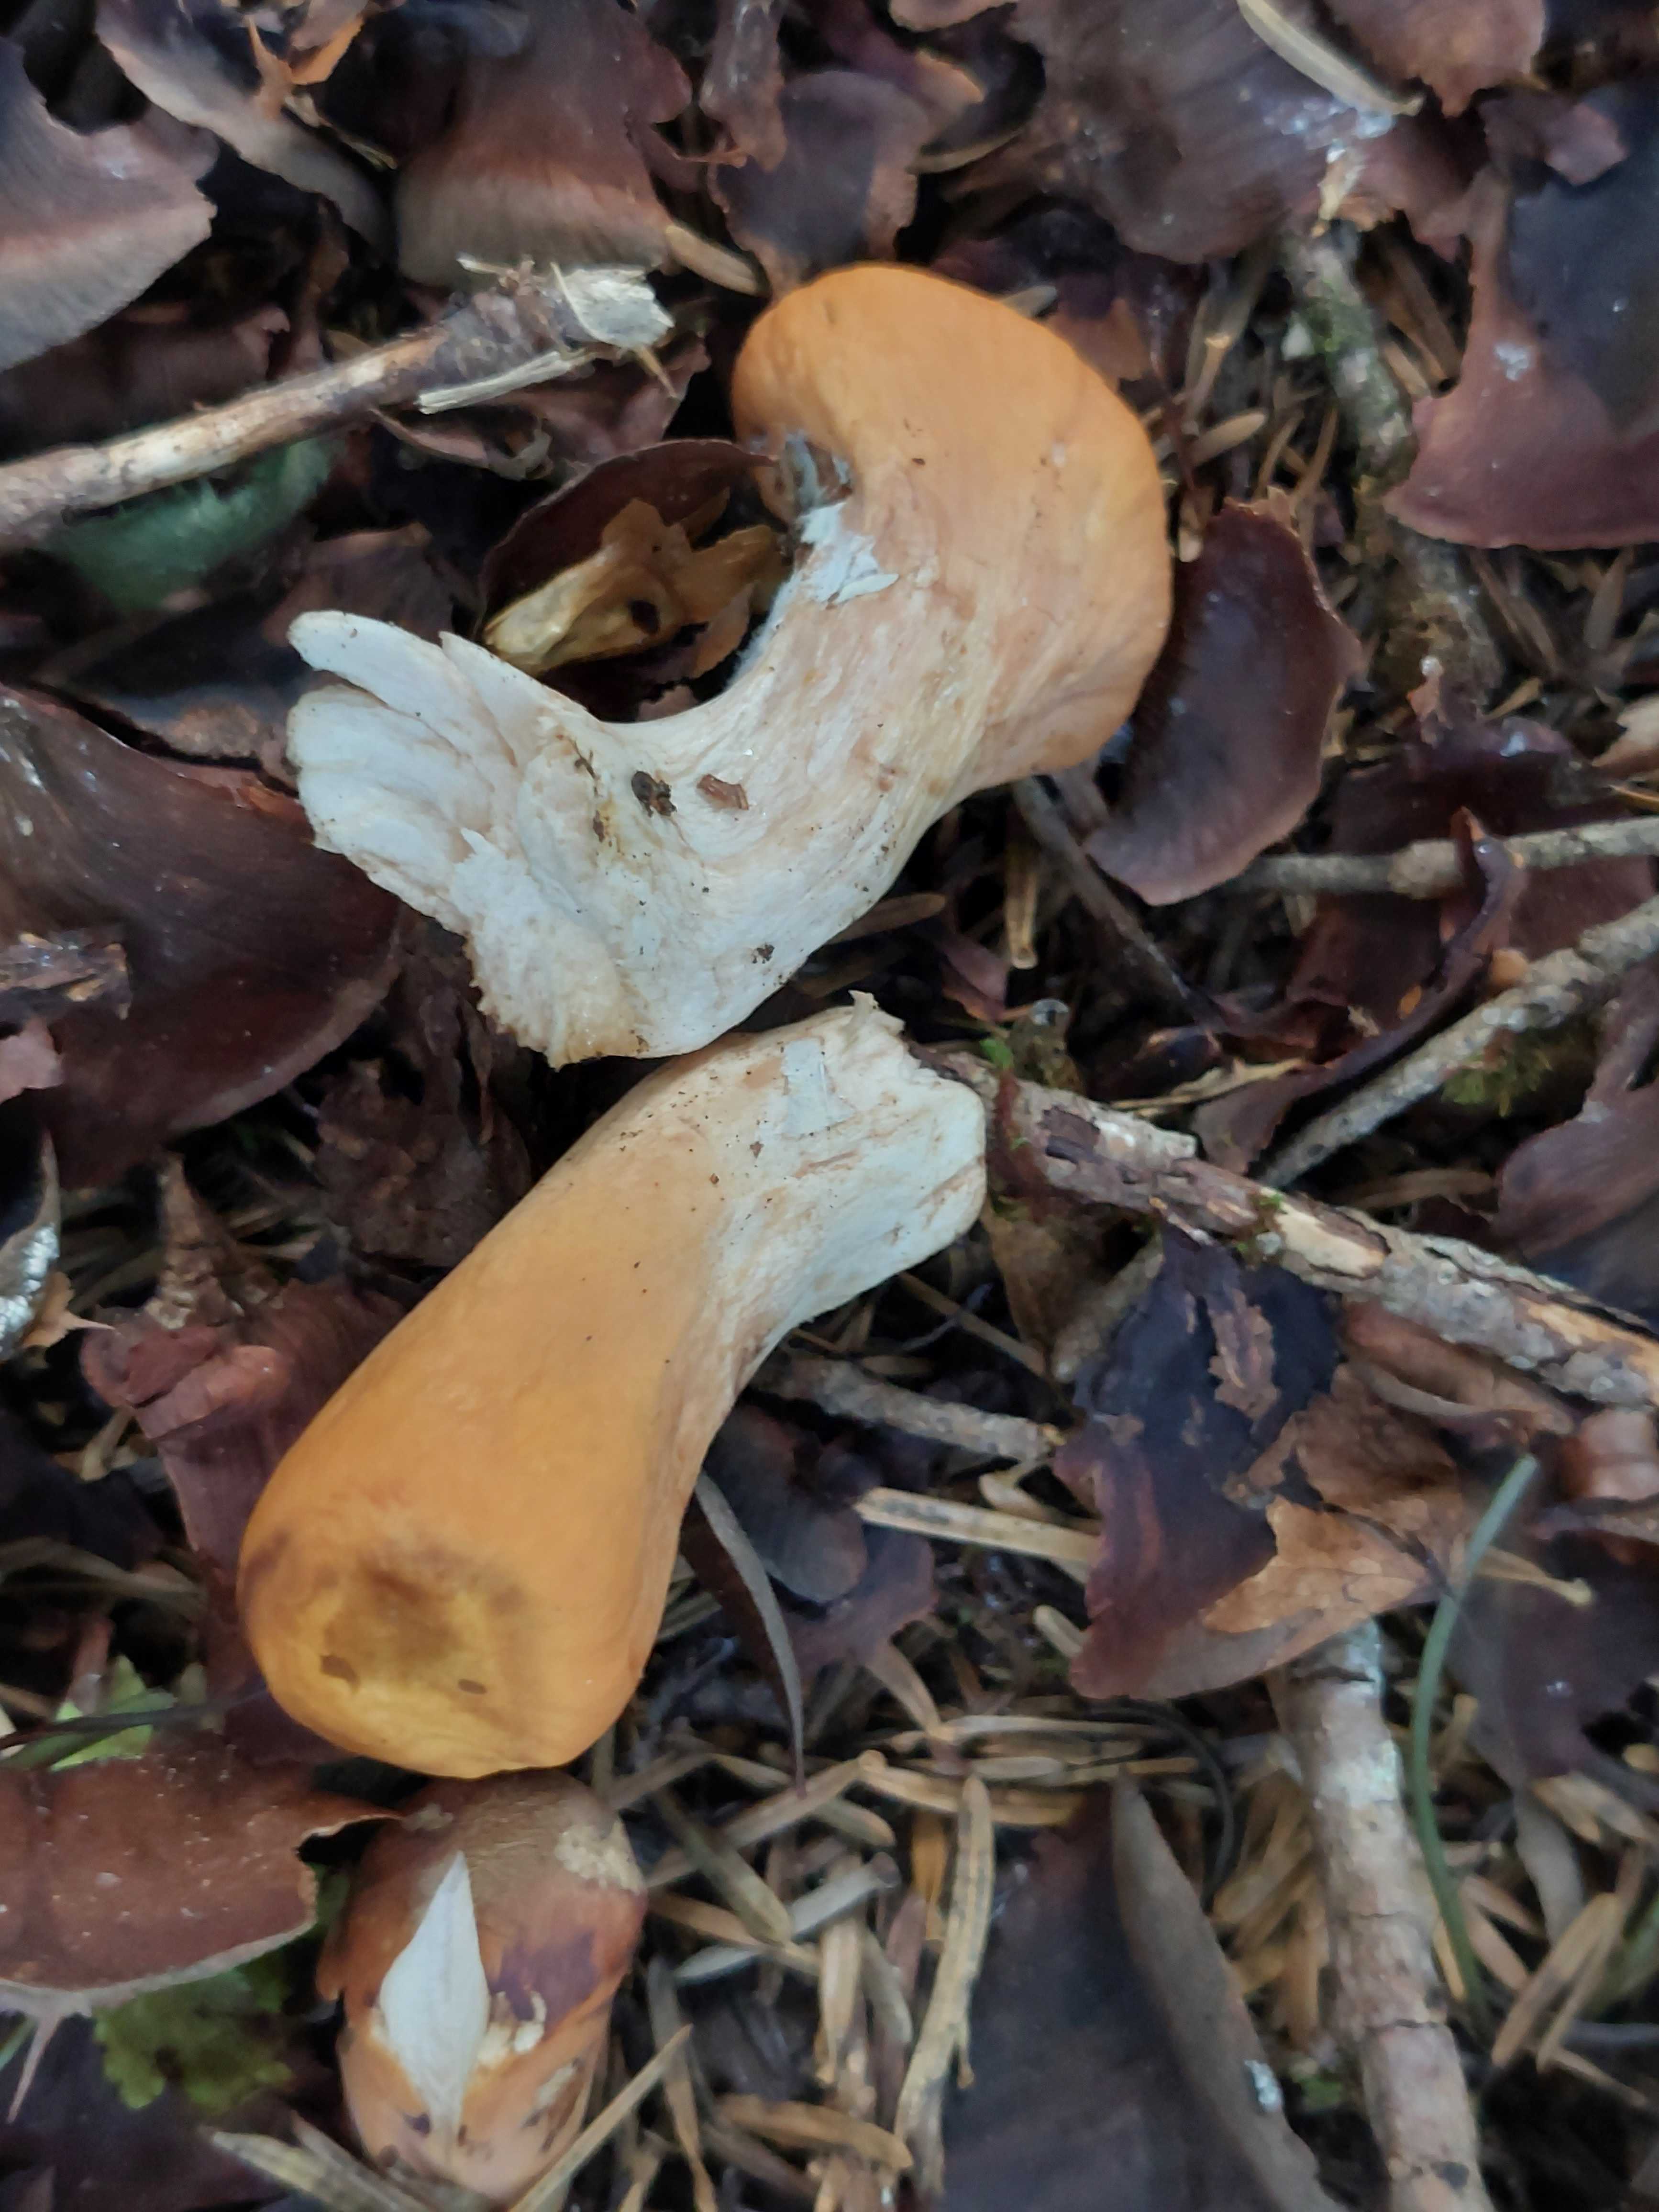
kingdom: Fungi
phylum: Basidiomycota
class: Agaricomycetes
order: Gomphales
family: Clavariadelphaceae
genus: Clavariadelphus
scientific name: Clavariadelphus truncatus
